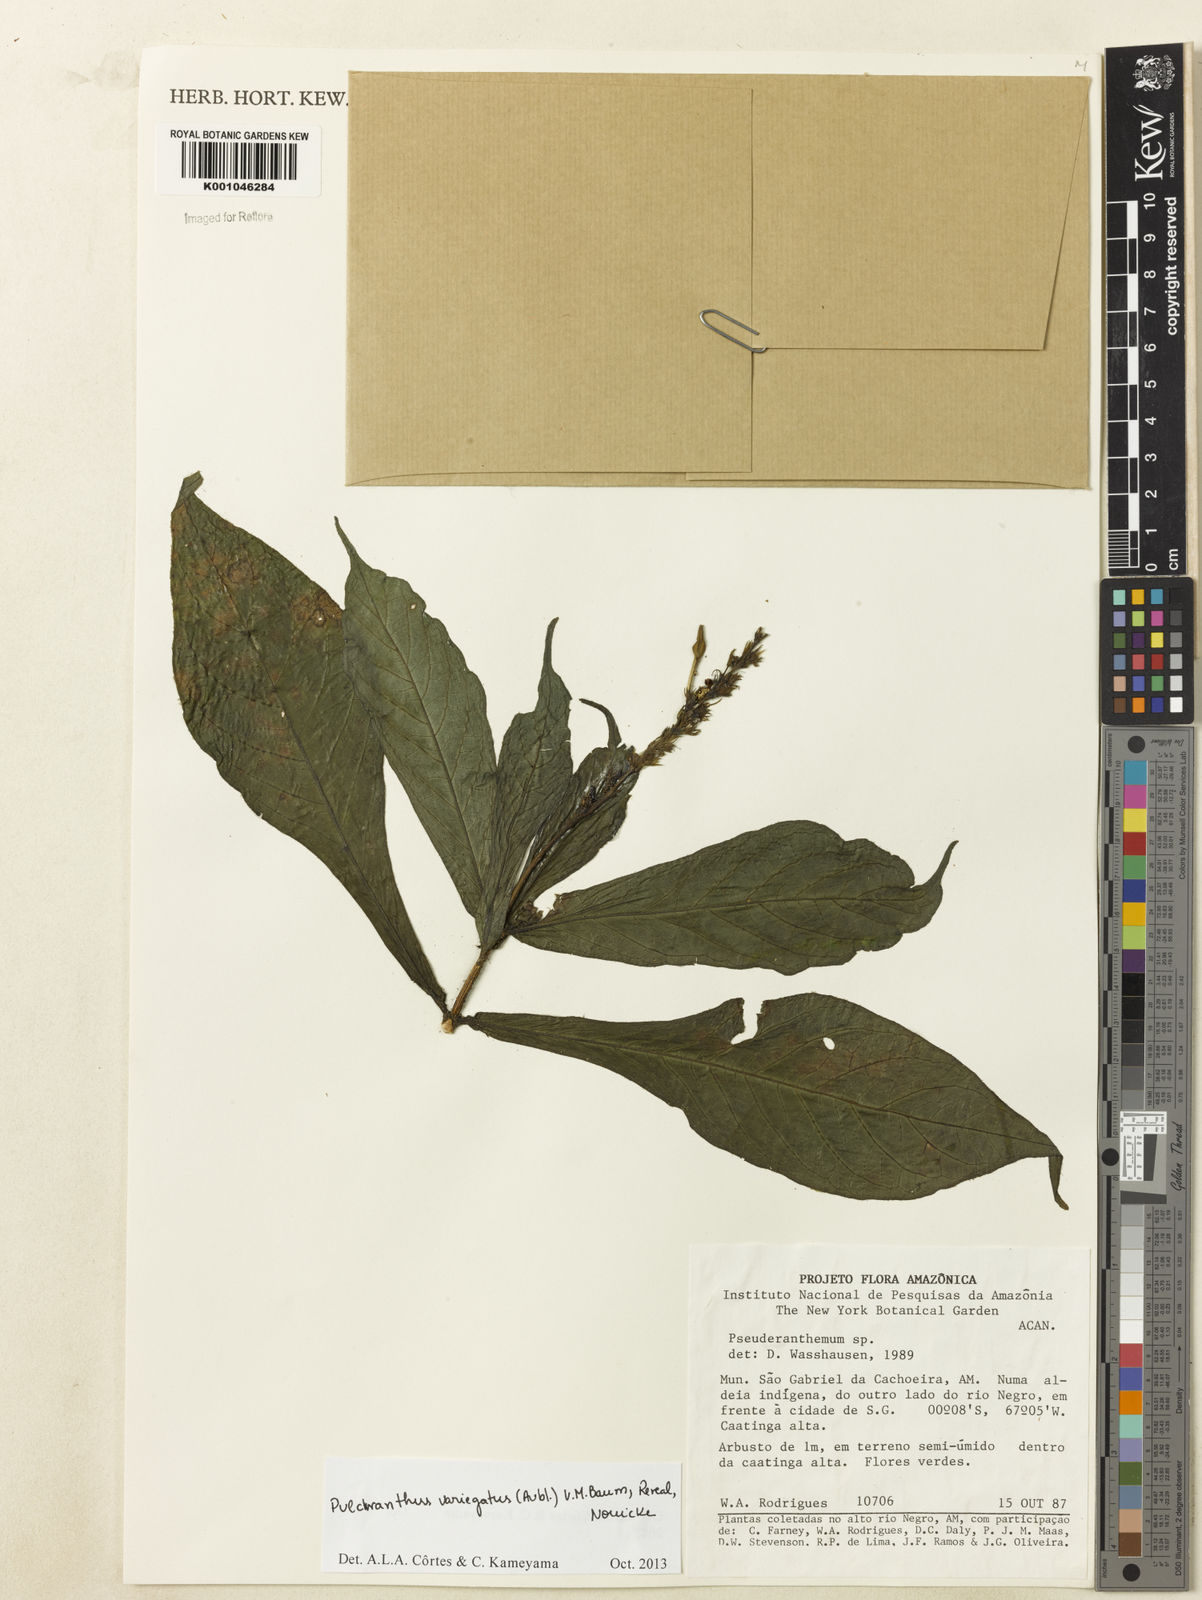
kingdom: Plantae
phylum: Tracheophyta
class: Magnoliopsida
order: Lamiales
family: Acanthaceae
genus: Pulchranthus
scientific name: Pulchranthus
